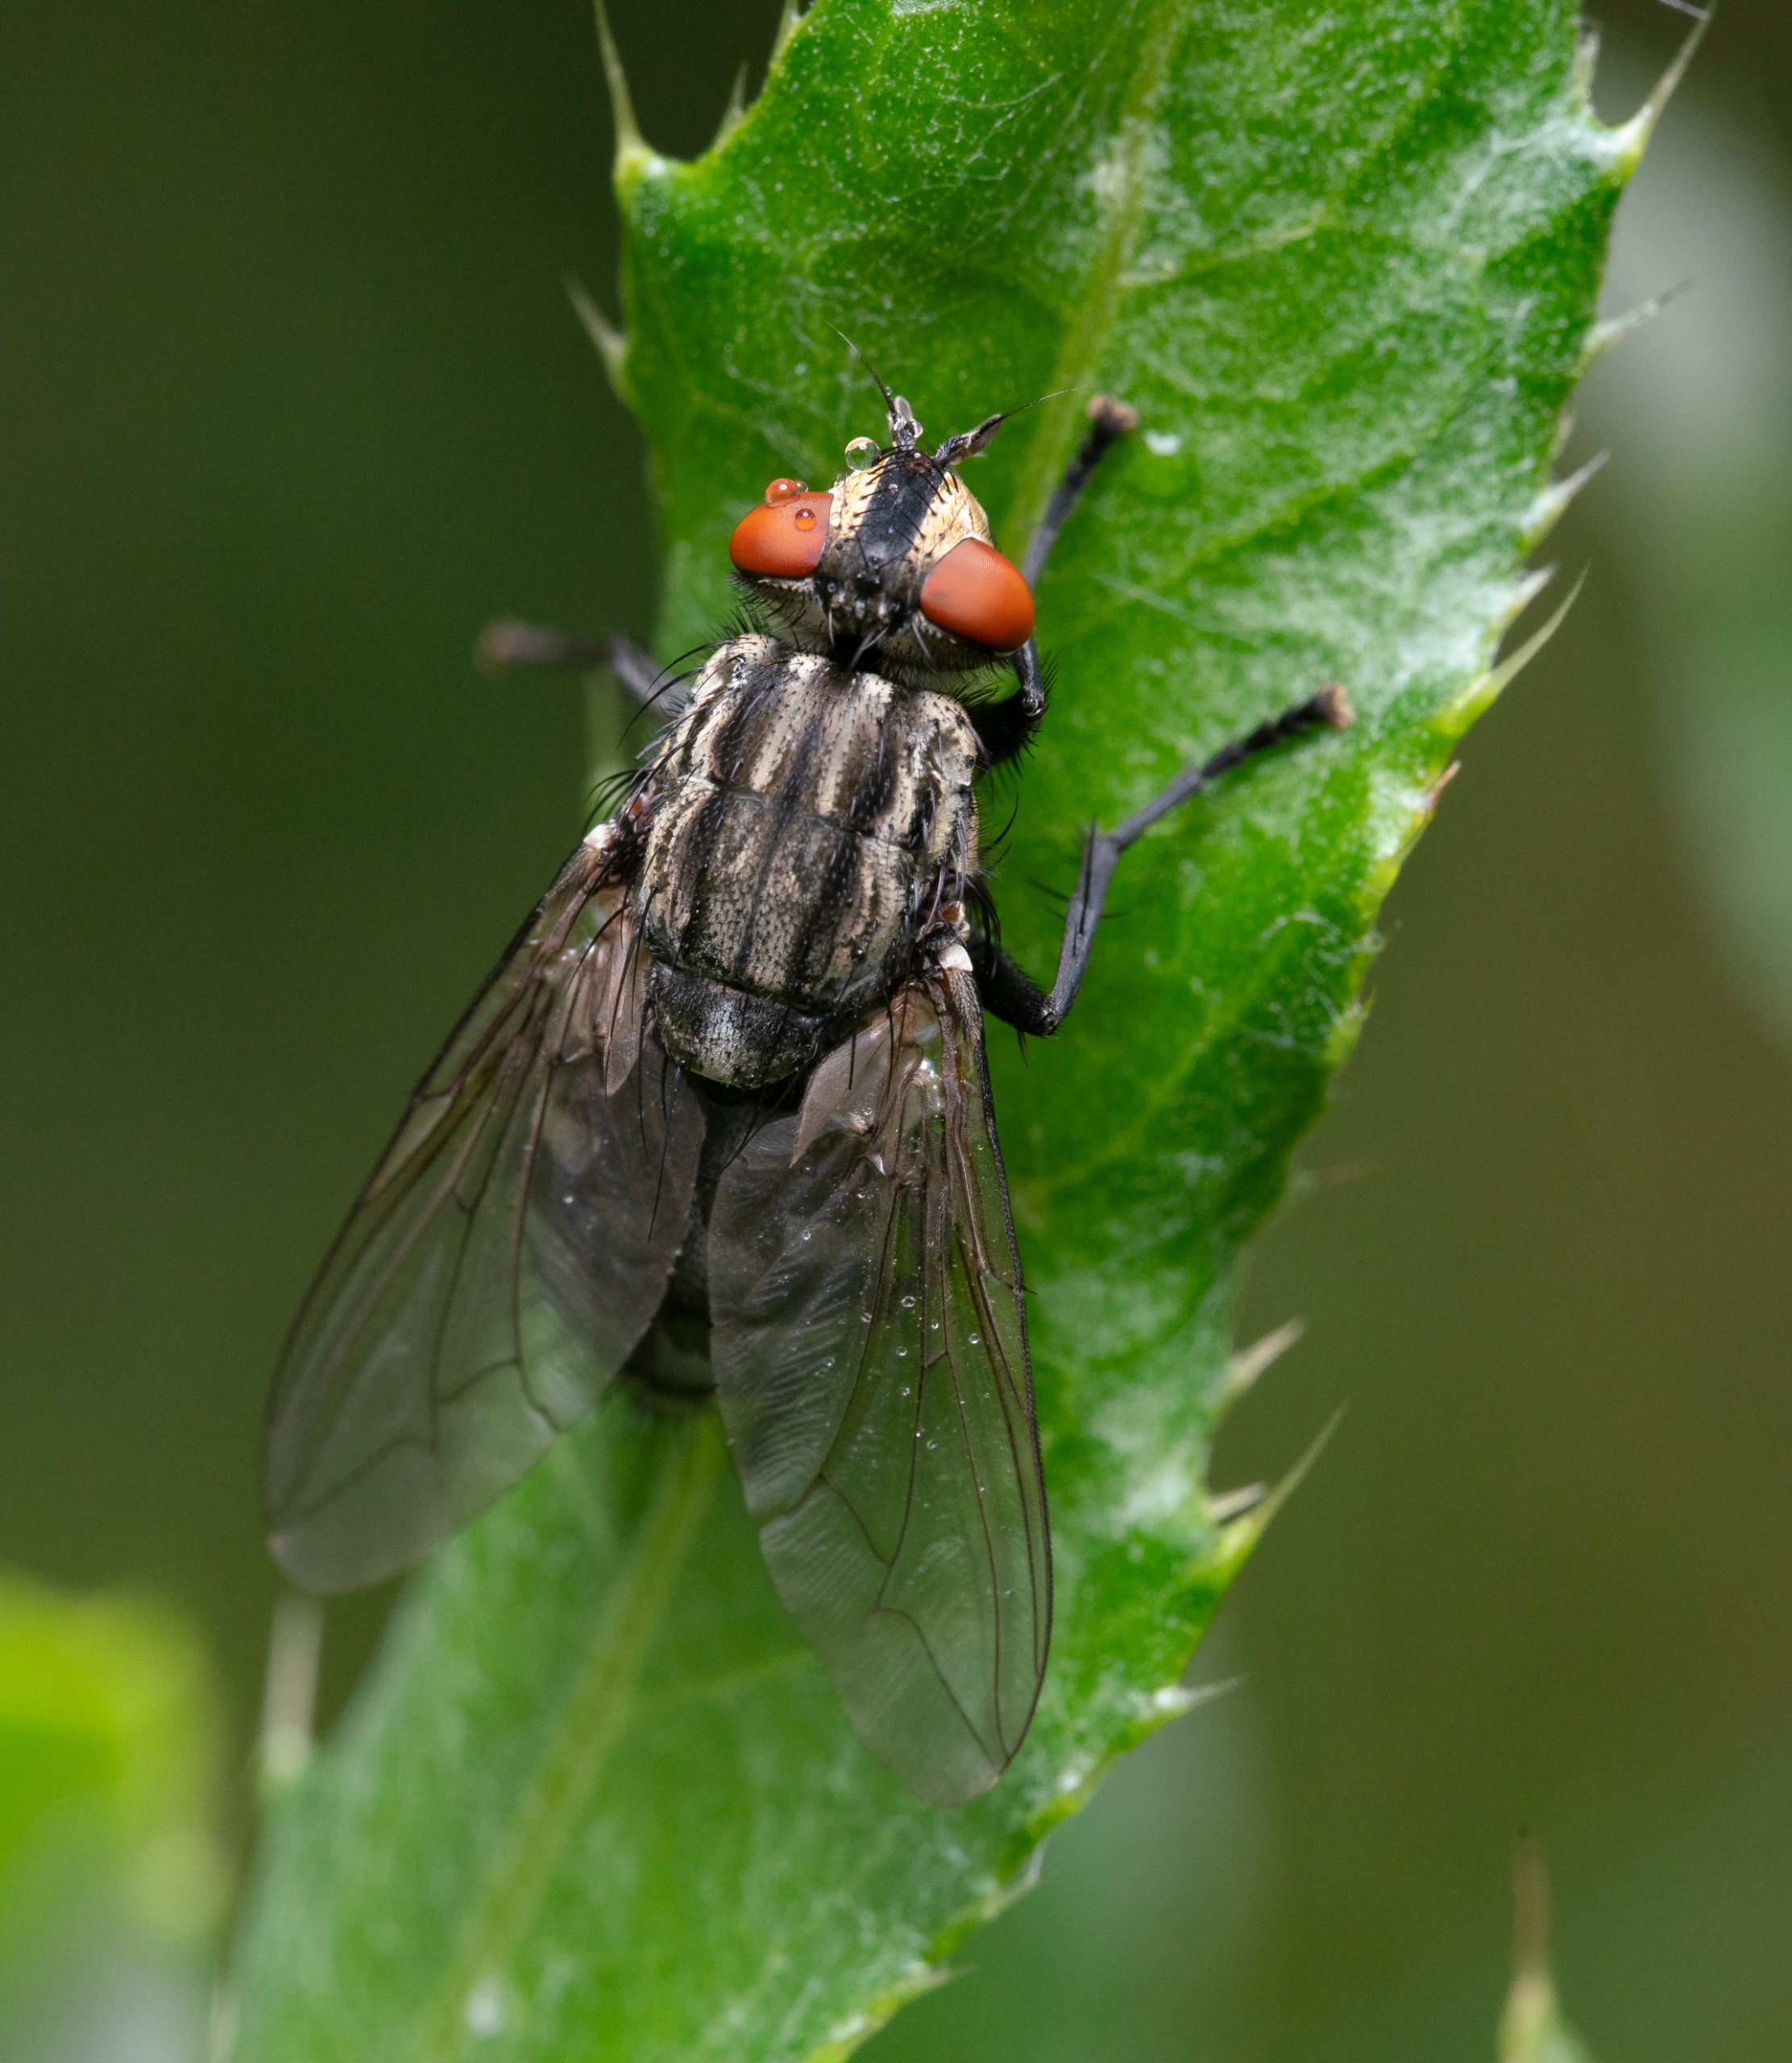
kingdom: Animalia
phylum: Arthropoda
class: Insecta
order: Diptera
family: Sarcophagidae
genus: Sarcophaga
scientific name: Sarcophaga
